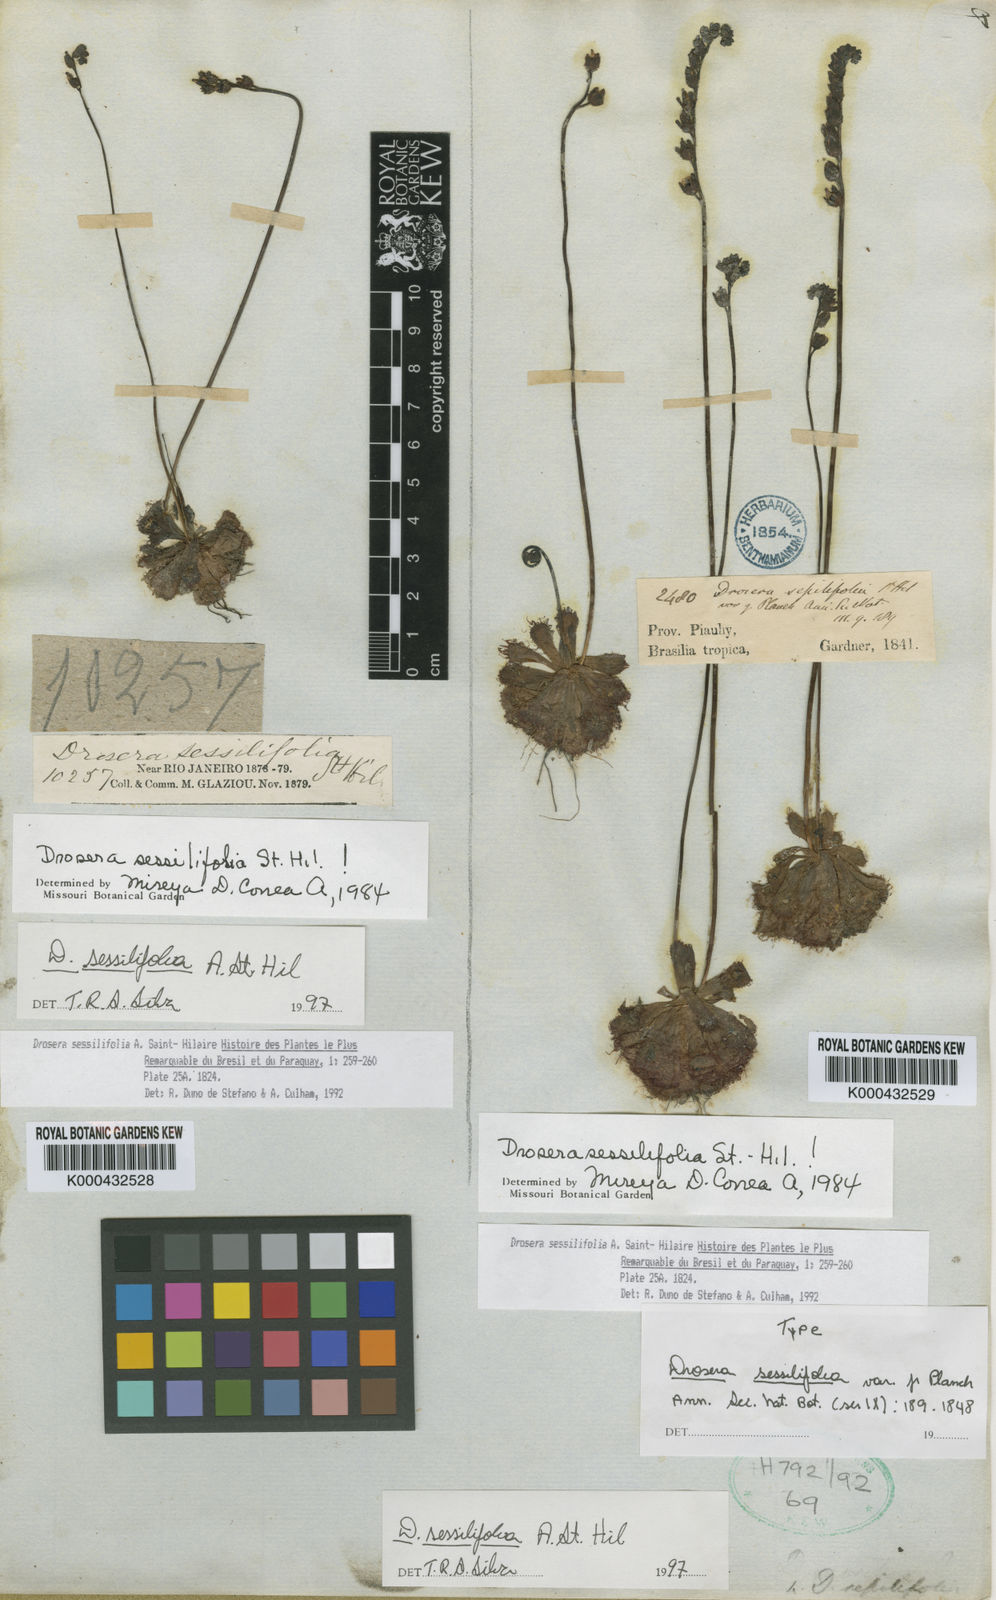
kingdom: Plantae
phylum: Tracheophyta
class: Magnoliopsida
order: Caryophyllales
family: Droseraceae
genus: Drosera
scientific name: Drosera sessilifolia
